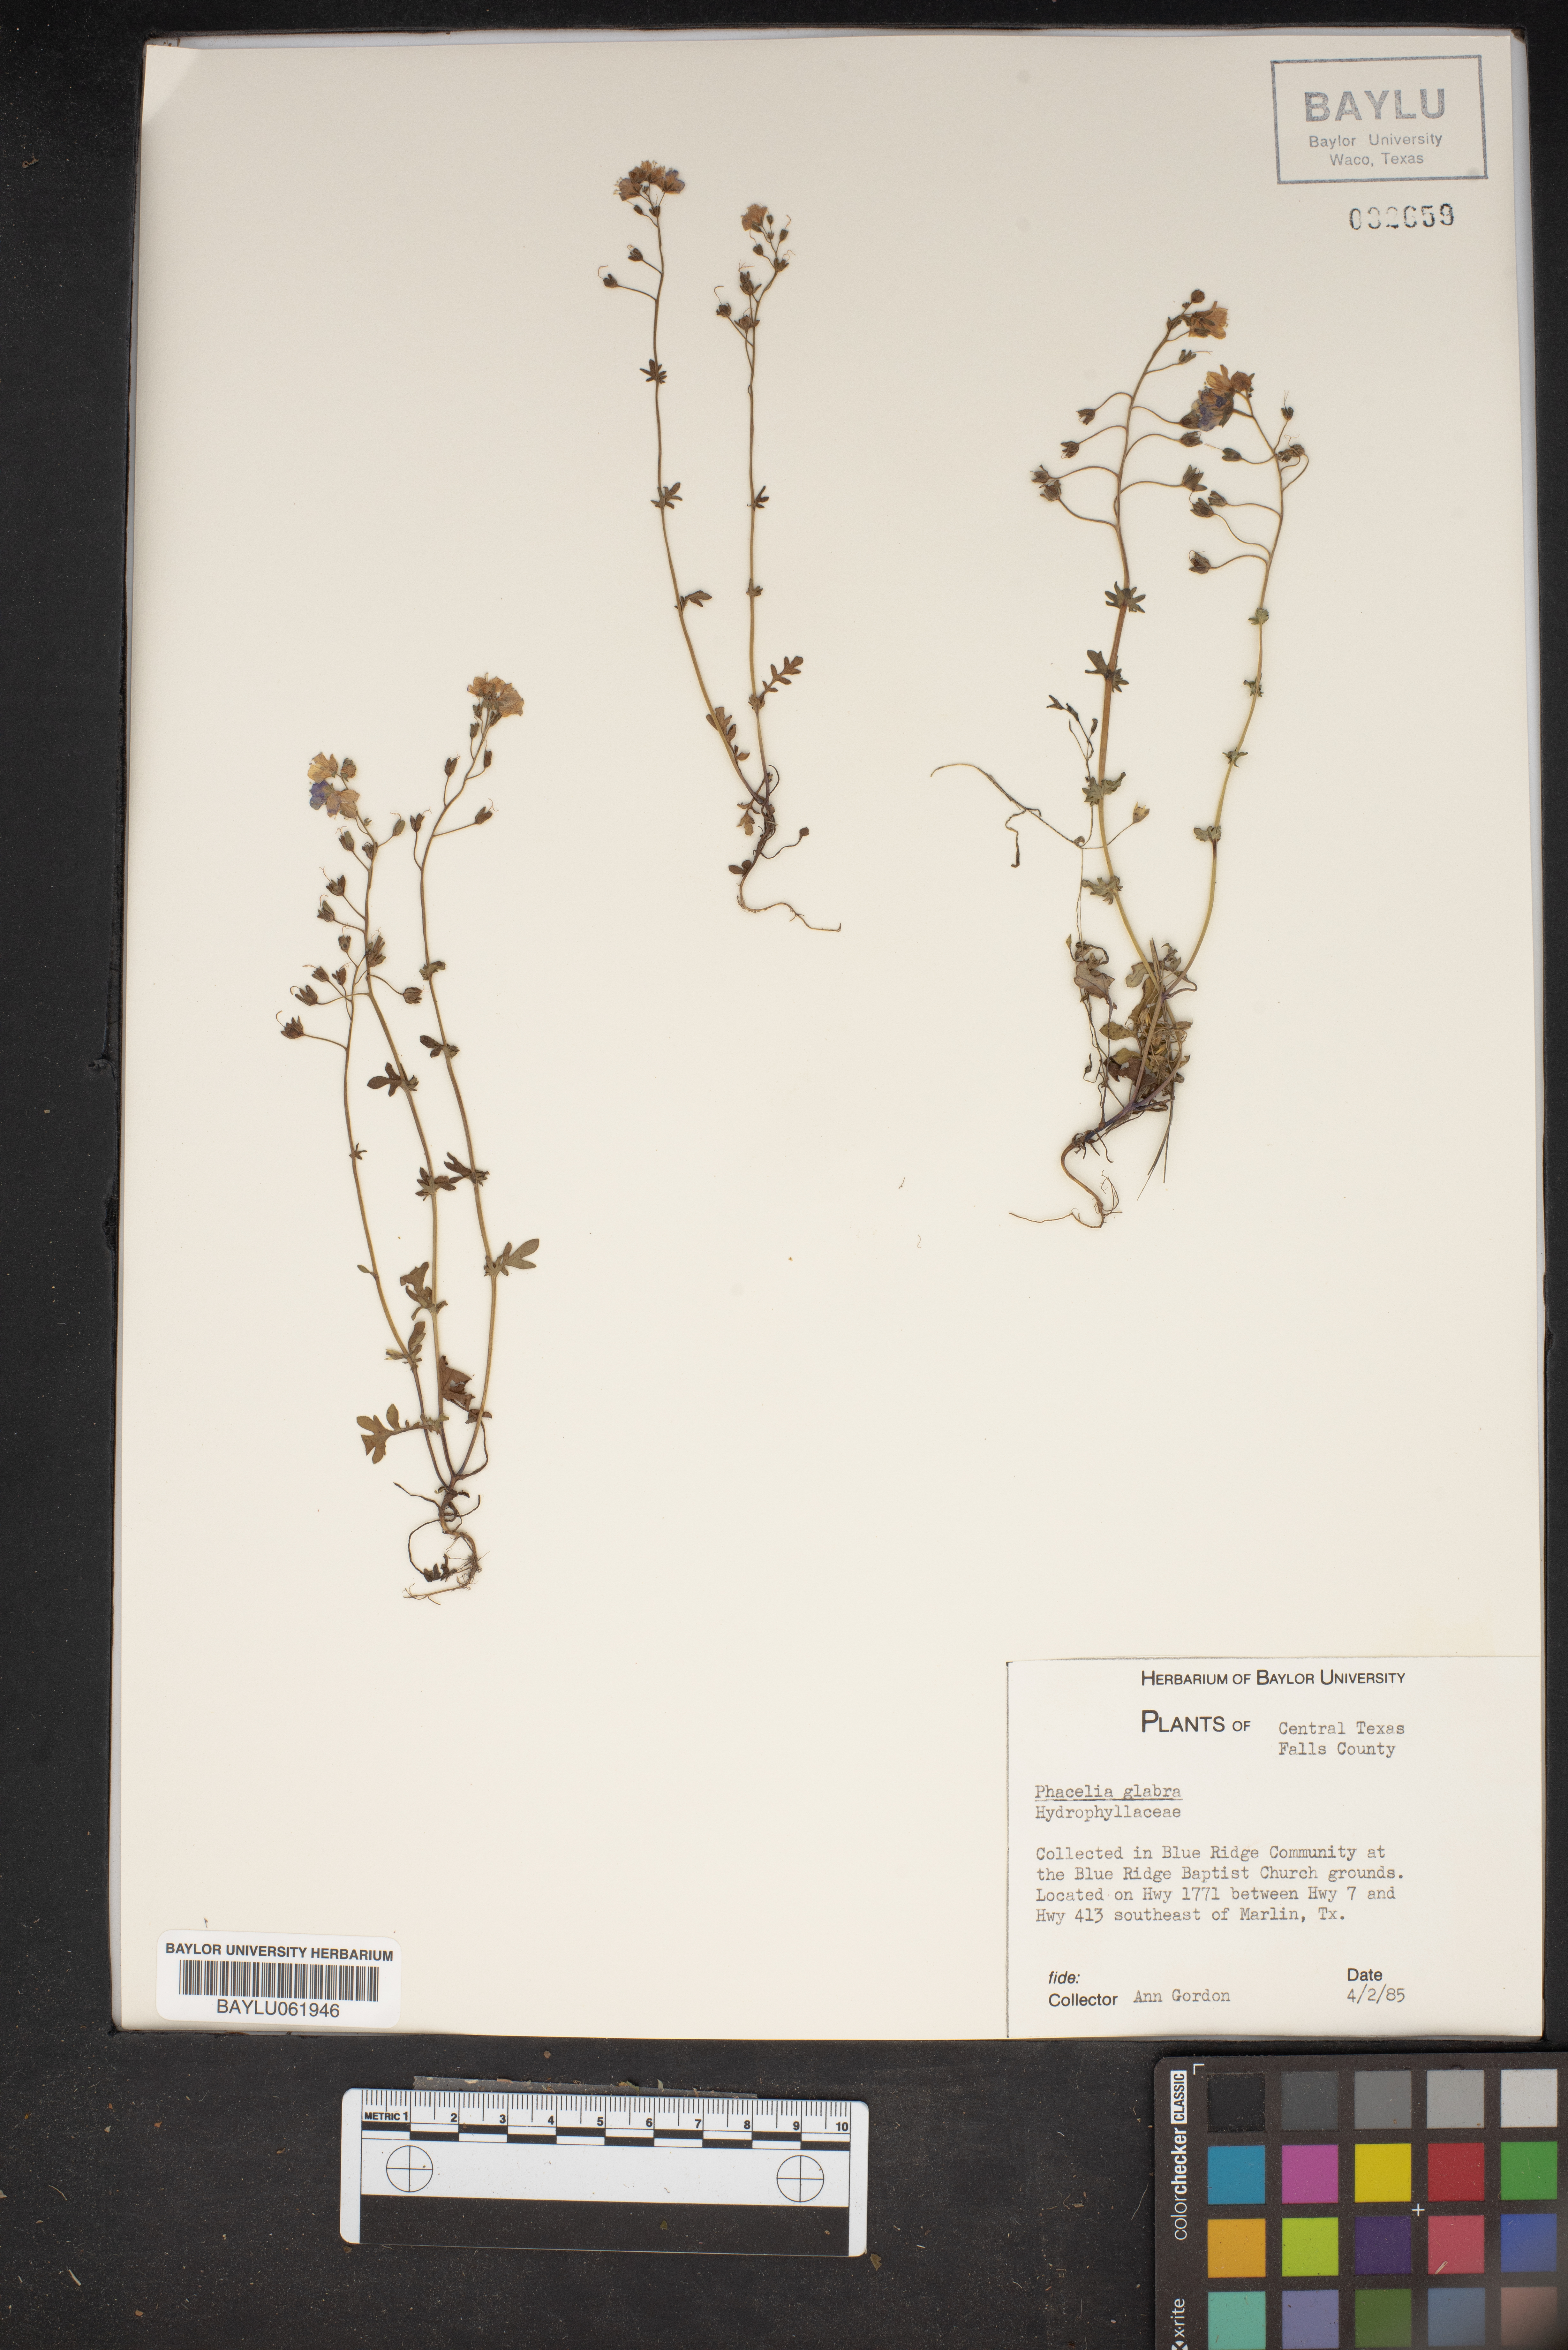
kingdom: Plantae
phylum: Tracheophyta
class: Magnoliopsida
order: Boraginales
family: Hydrophyllaceae
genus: Phacelia
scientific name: Phacelia glabra
